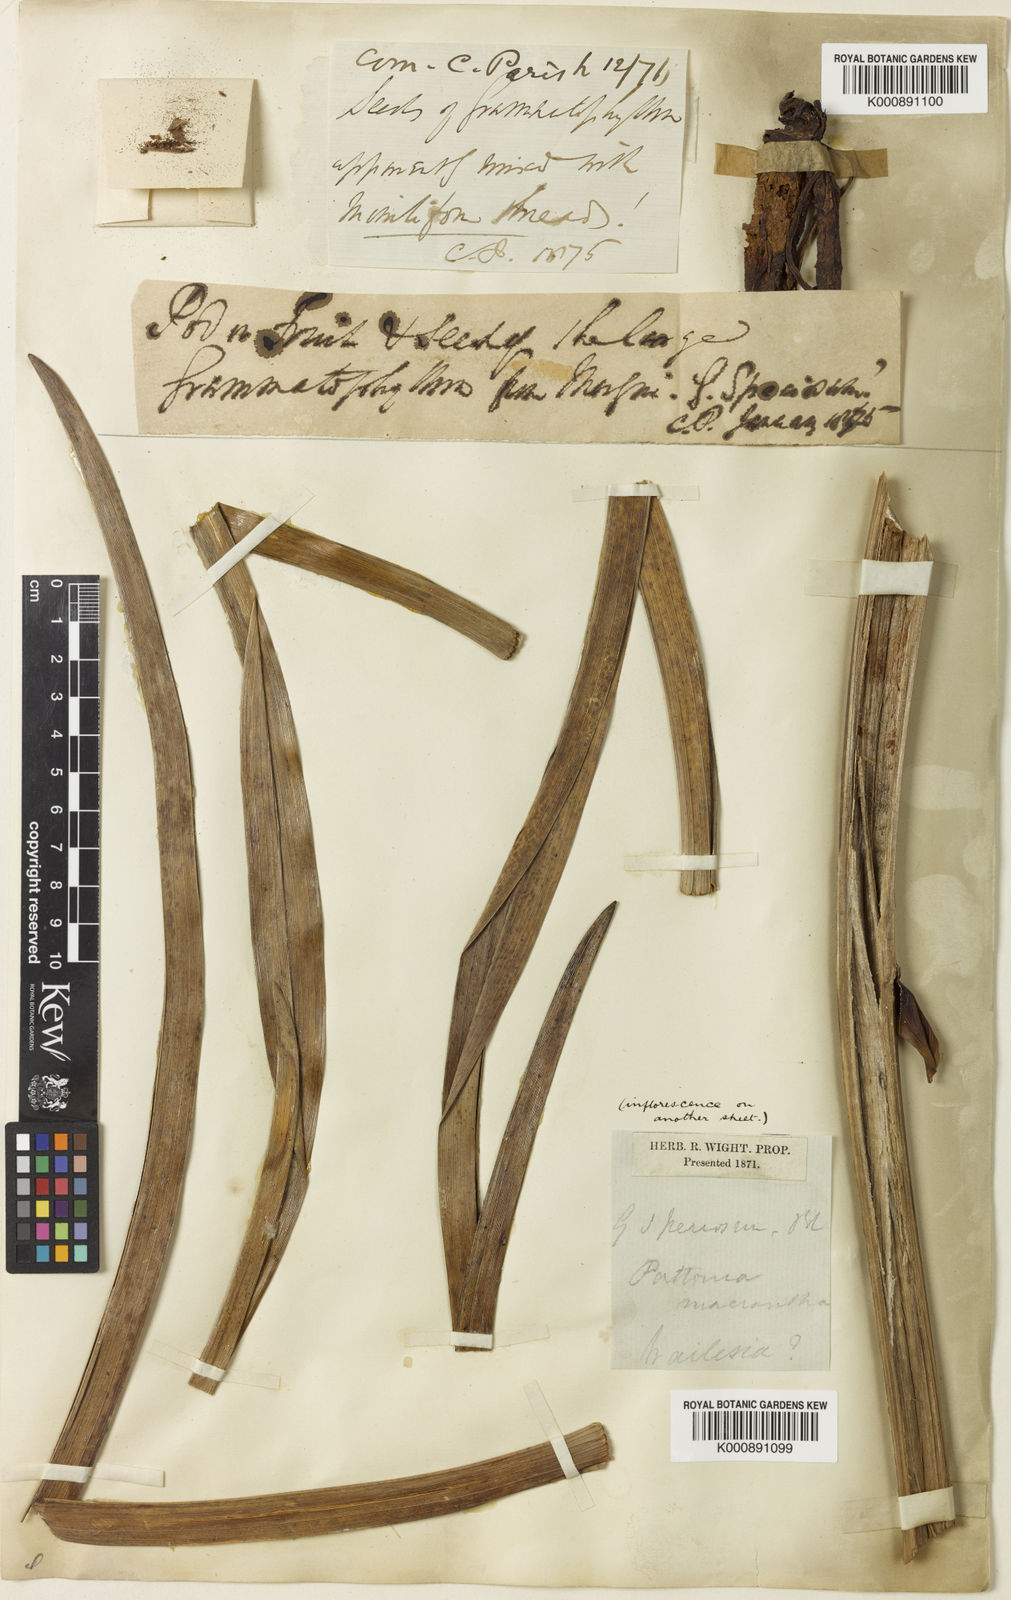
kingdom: Plantae
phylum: Tracheophyta
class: Liliopsida
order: Asparagales
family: Orchidaceae
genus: Grammatophyllum
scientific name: Grammatophyllum speciosum
